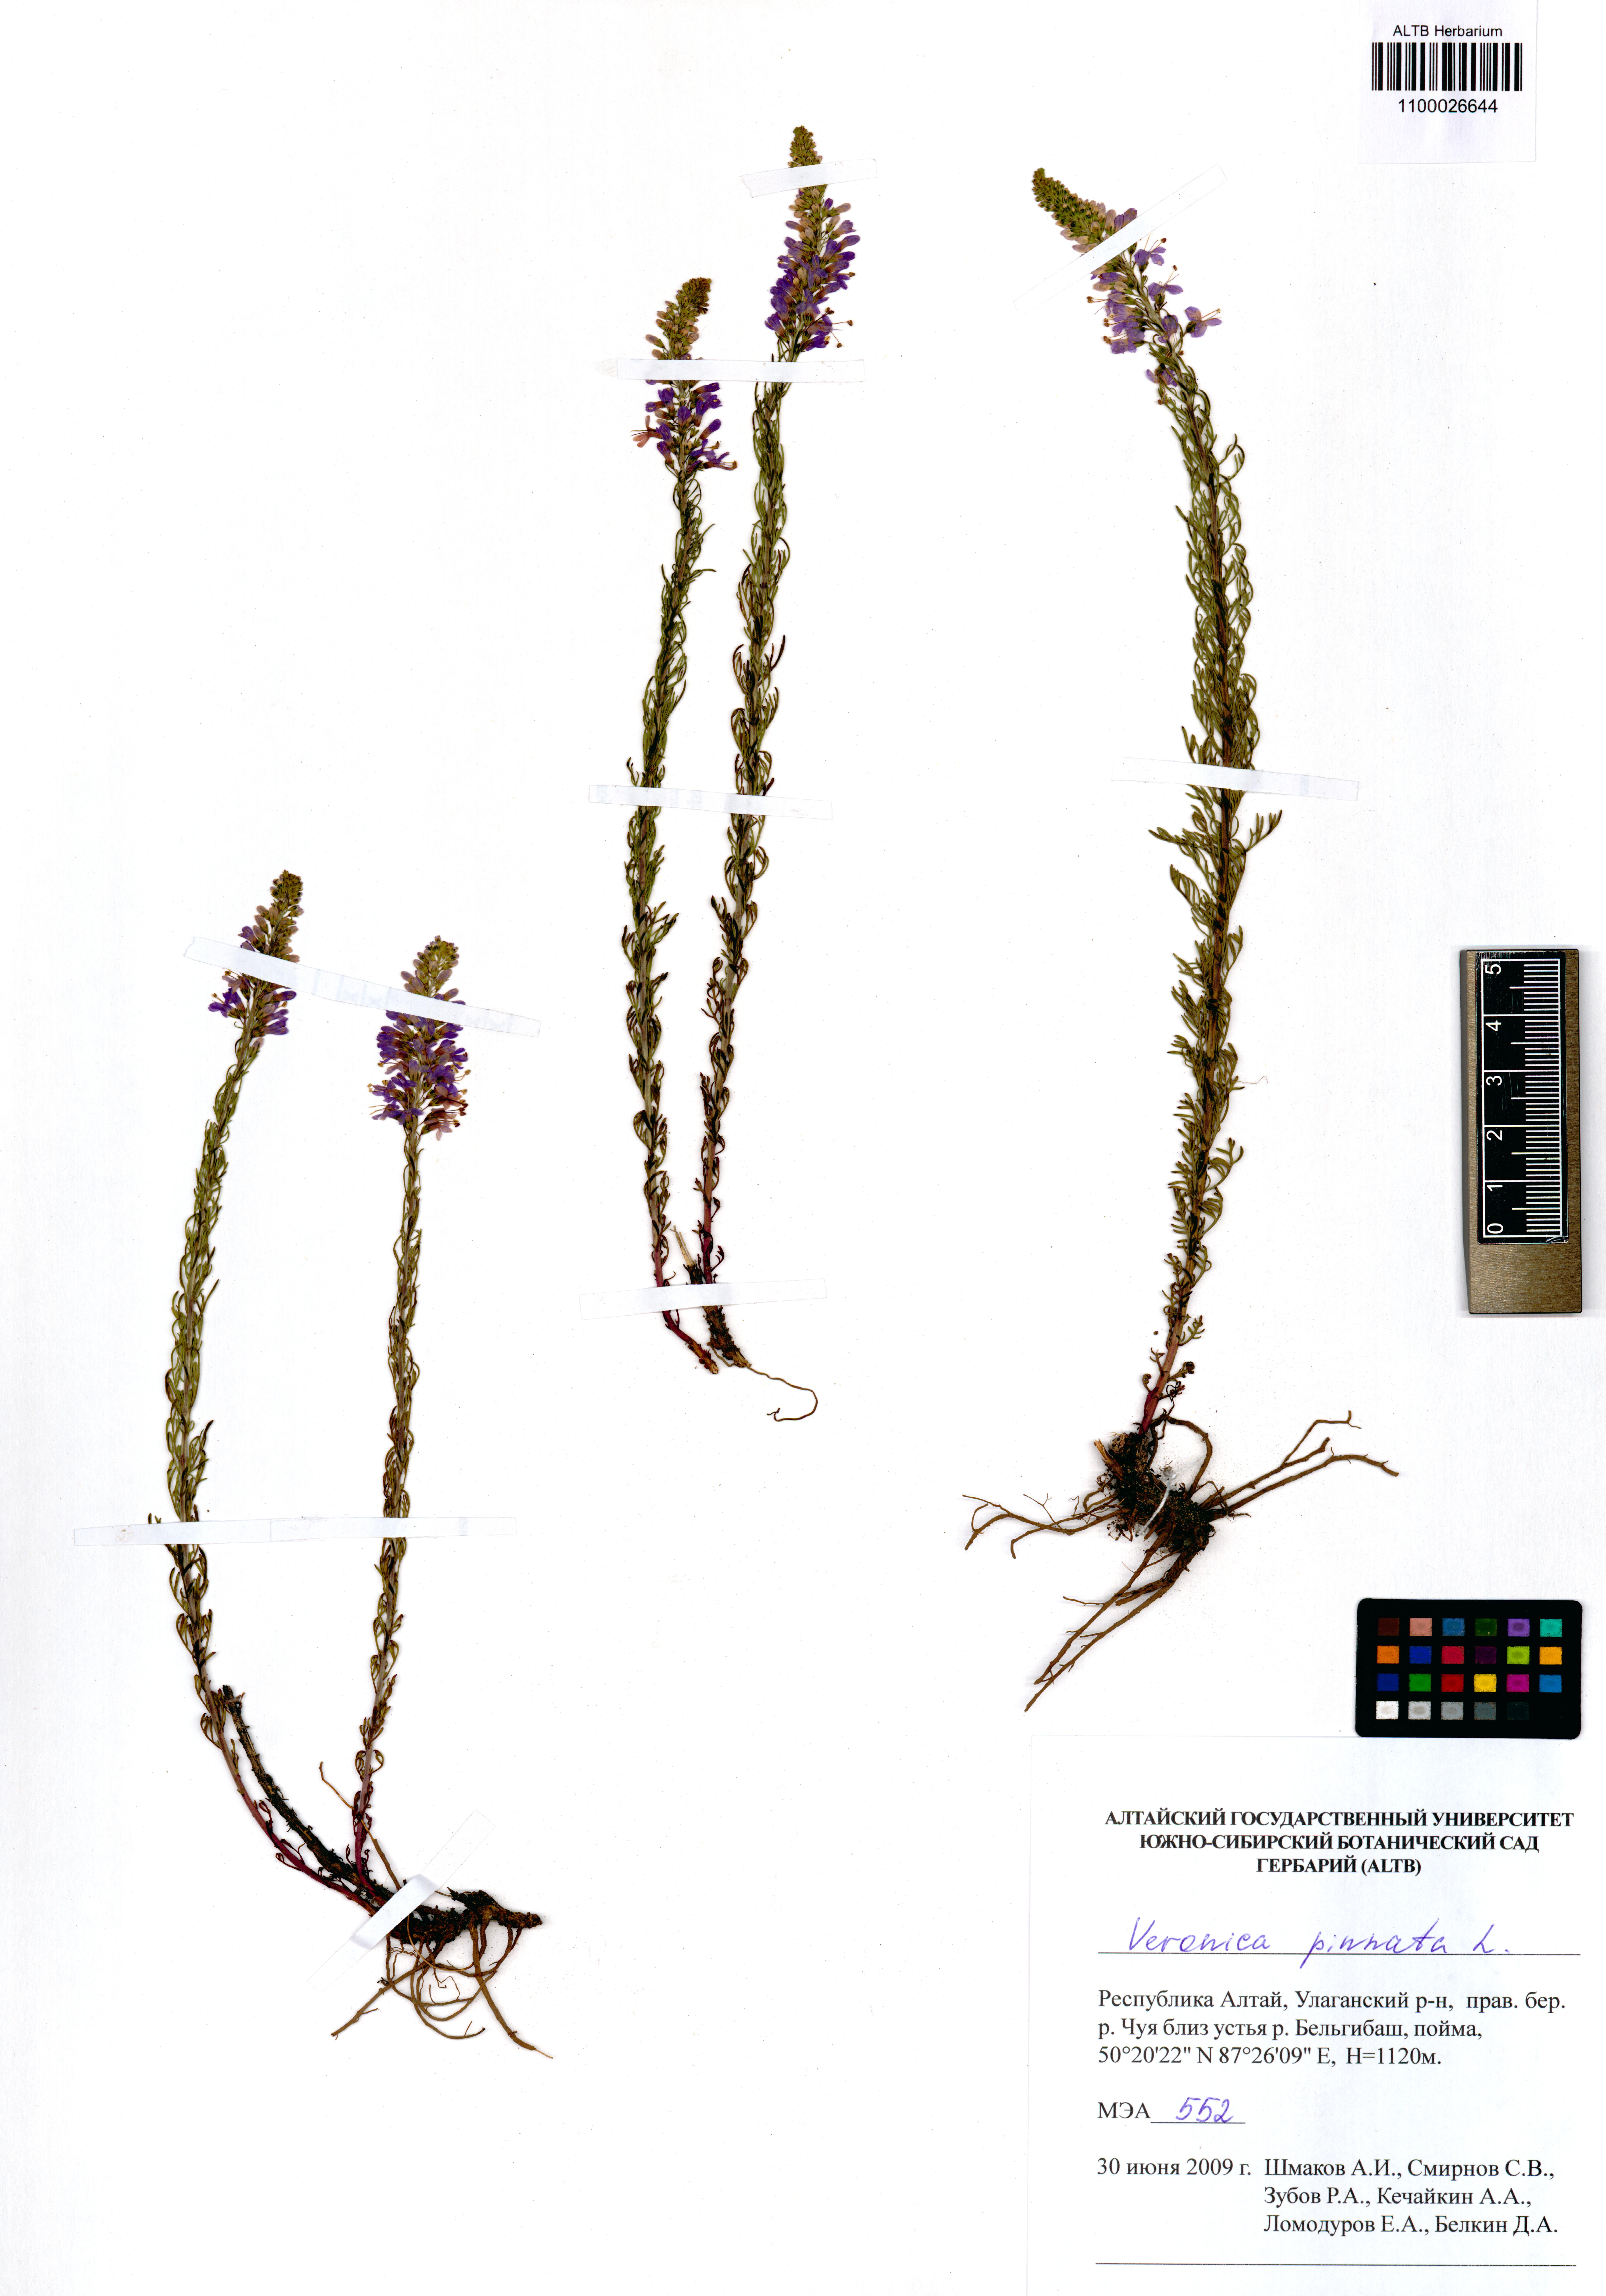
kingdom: Plantae
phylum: Tracheophyta
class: Magnoliopsida
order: Lamiales
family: Plantaginaceae
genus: Veronica
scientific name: Veronica pinnata
